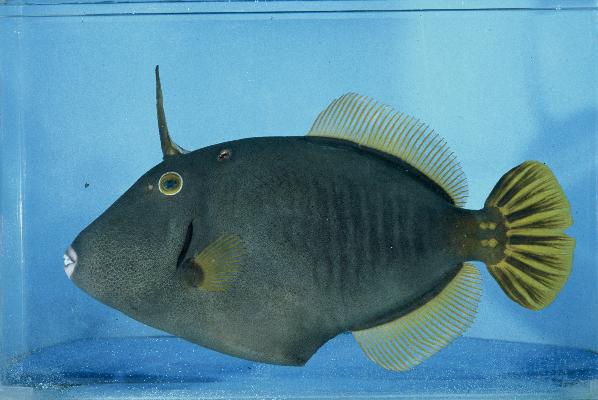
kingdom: Animalia
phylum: Chordata
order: Tetraodontiformes
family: Monacanthidae
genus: Cantherhines
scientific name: Cantherhines dumerilii
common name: Barred filefish
